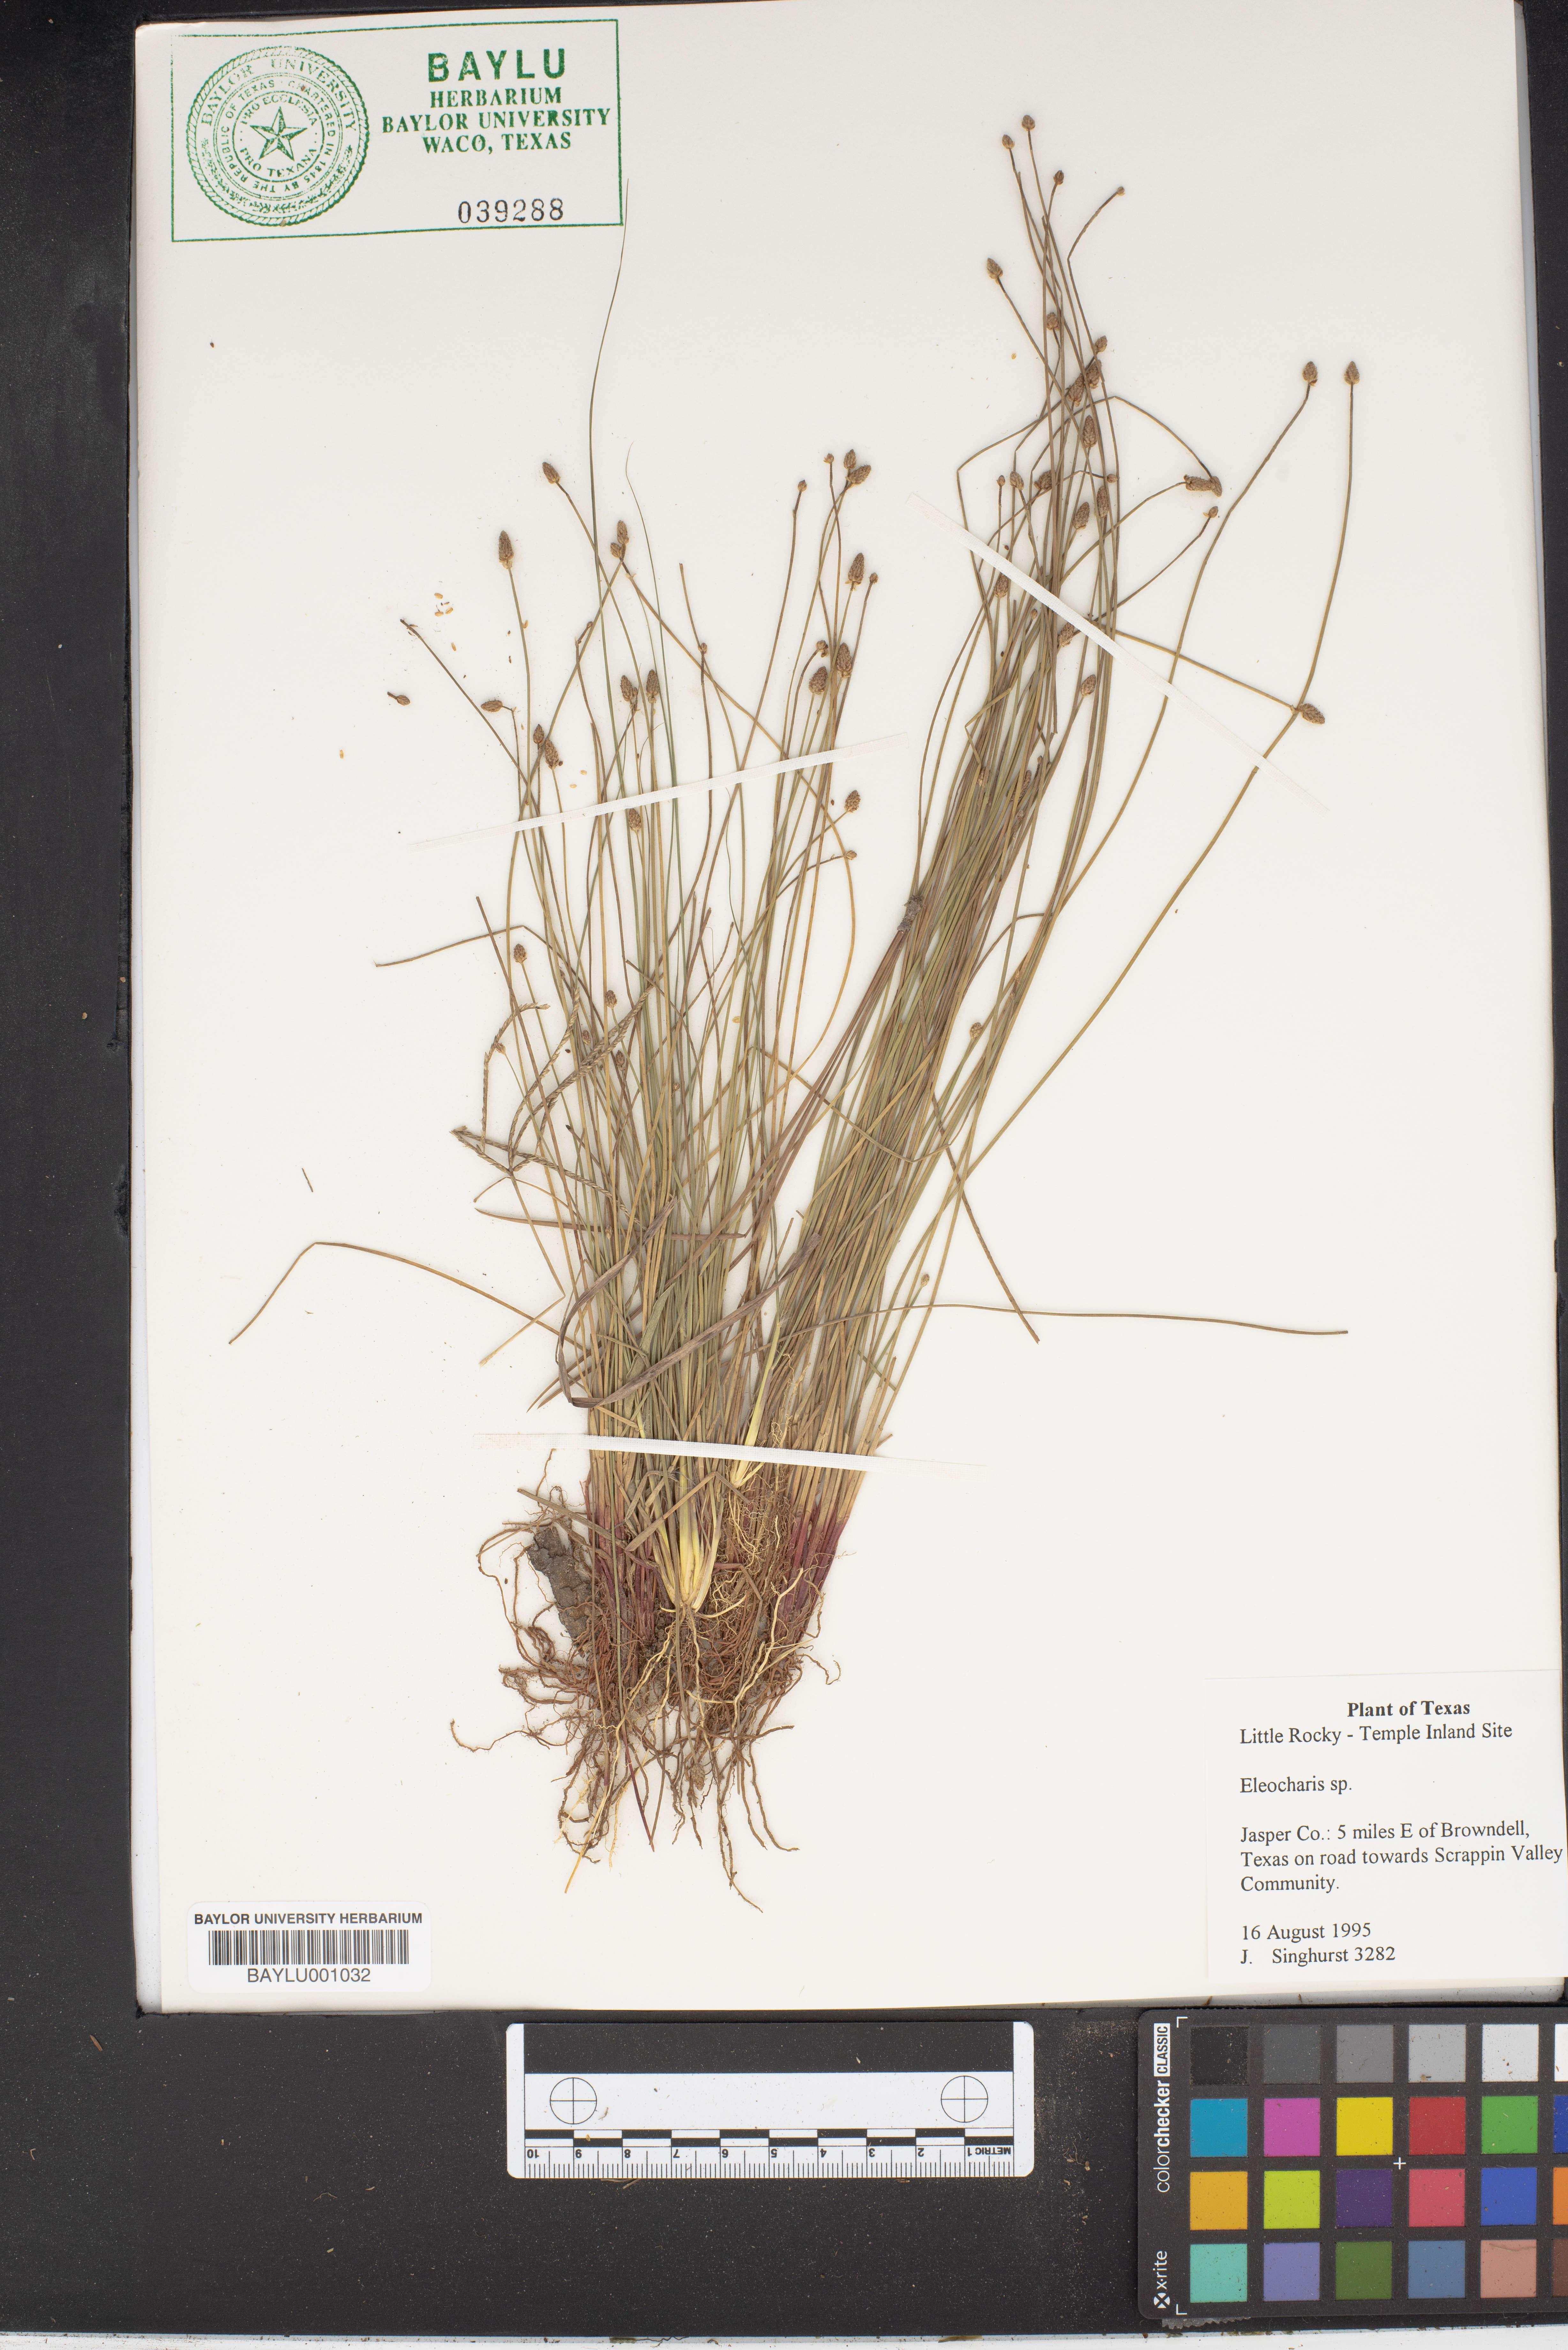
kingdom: Plantae
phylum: Tracheophyta
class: Liliopsida
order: Poales
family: Cyperaceae
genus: Eleocharis
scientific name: Eleocharis
